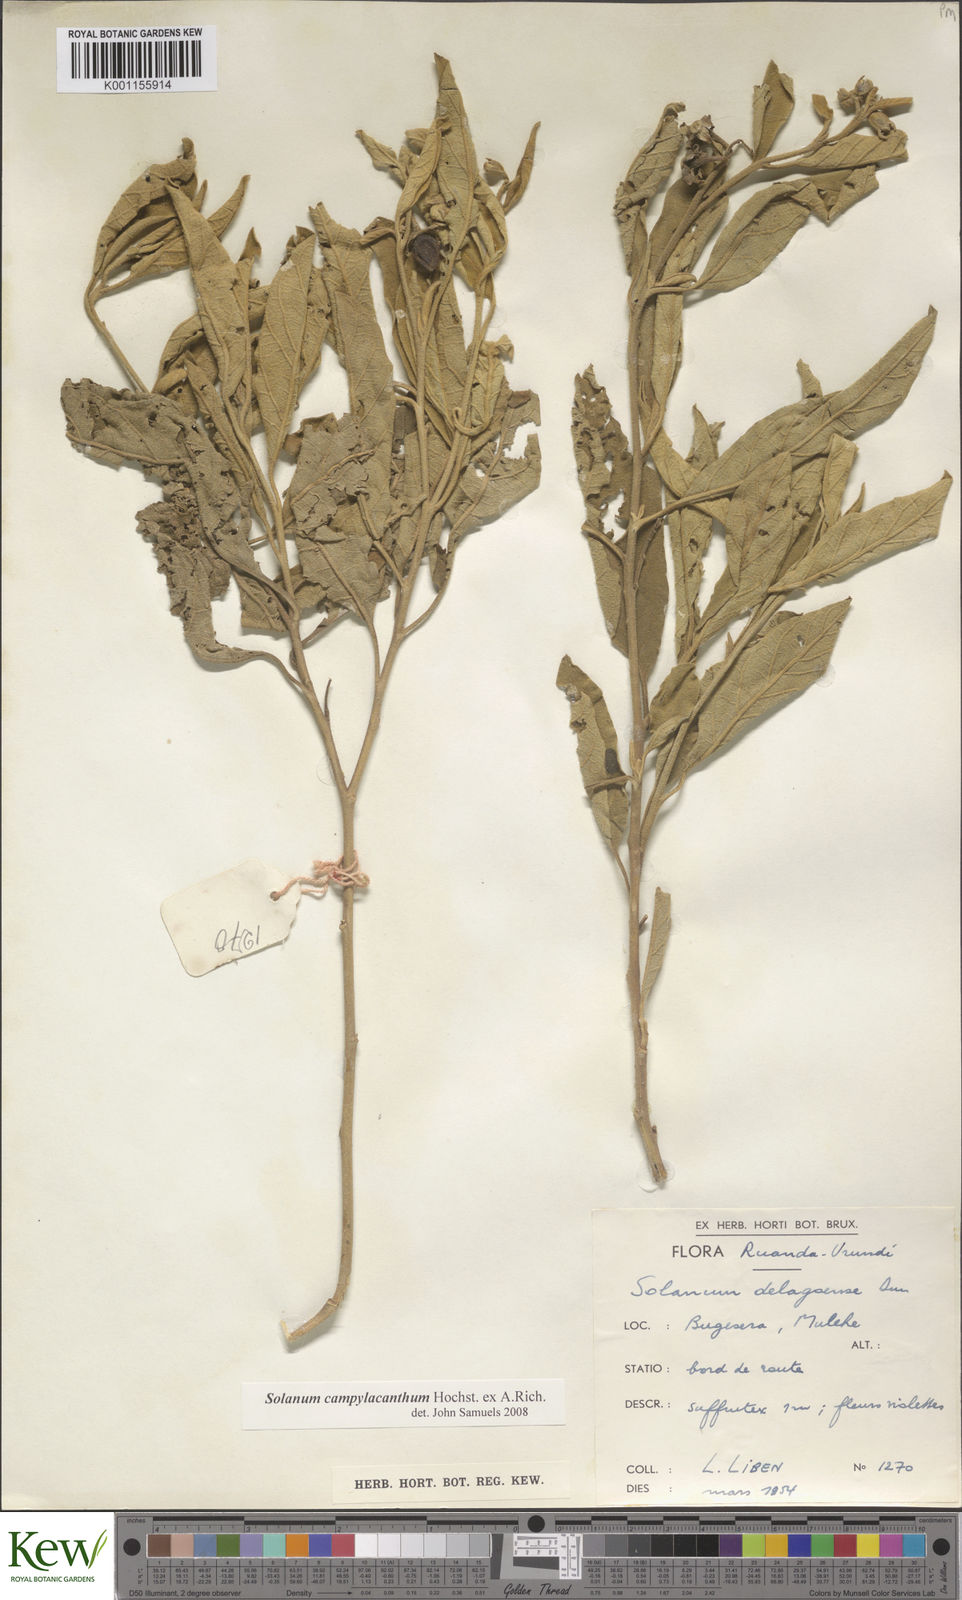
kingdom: Plantae
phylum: Tracheophyta
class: Magnoliopsida
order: Solanales
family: Solanaceae
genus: Solanum
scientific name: Solanum campylacanthum
